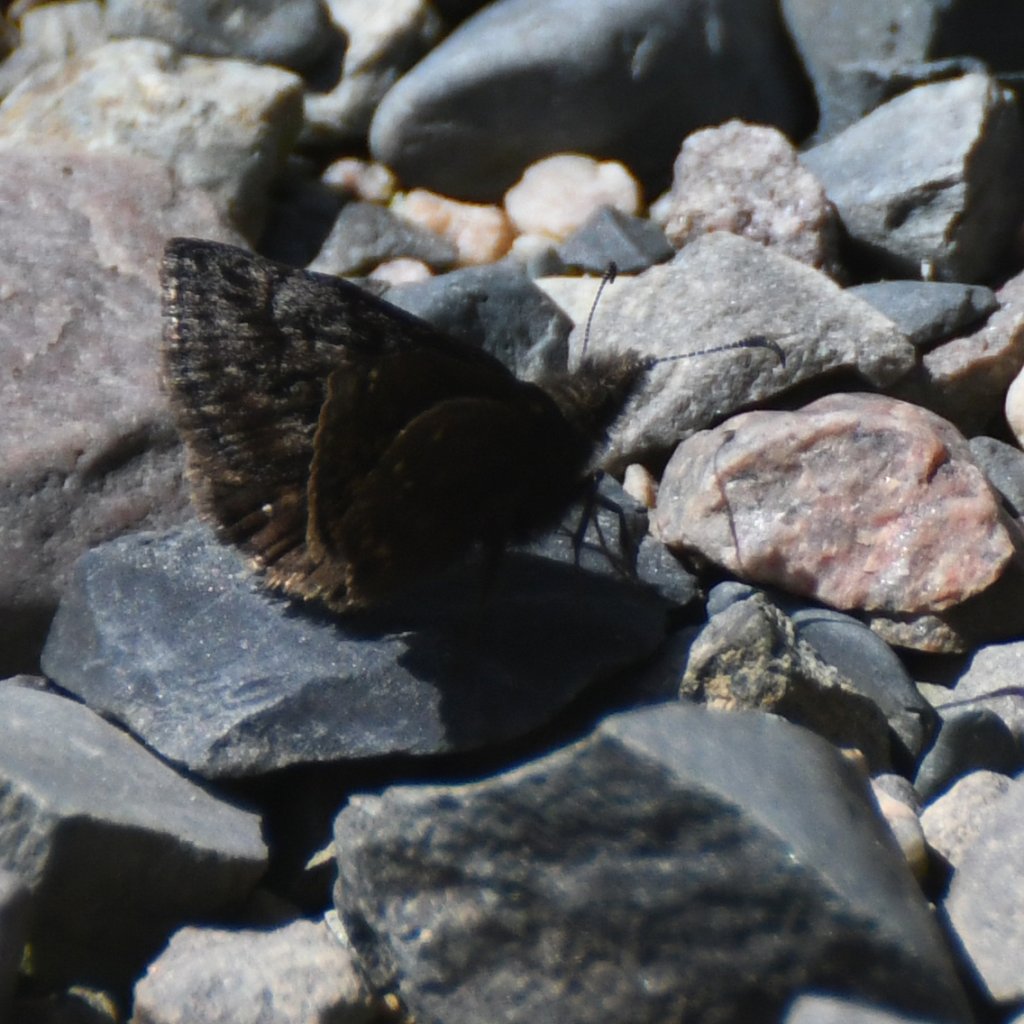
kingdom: Animalia
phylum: Arthropoda
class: Insecta
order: Lepidoptera
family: Hesperiidae
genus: Erynnis
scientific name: Erynnis icelus
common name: Dreamy Duskywing
